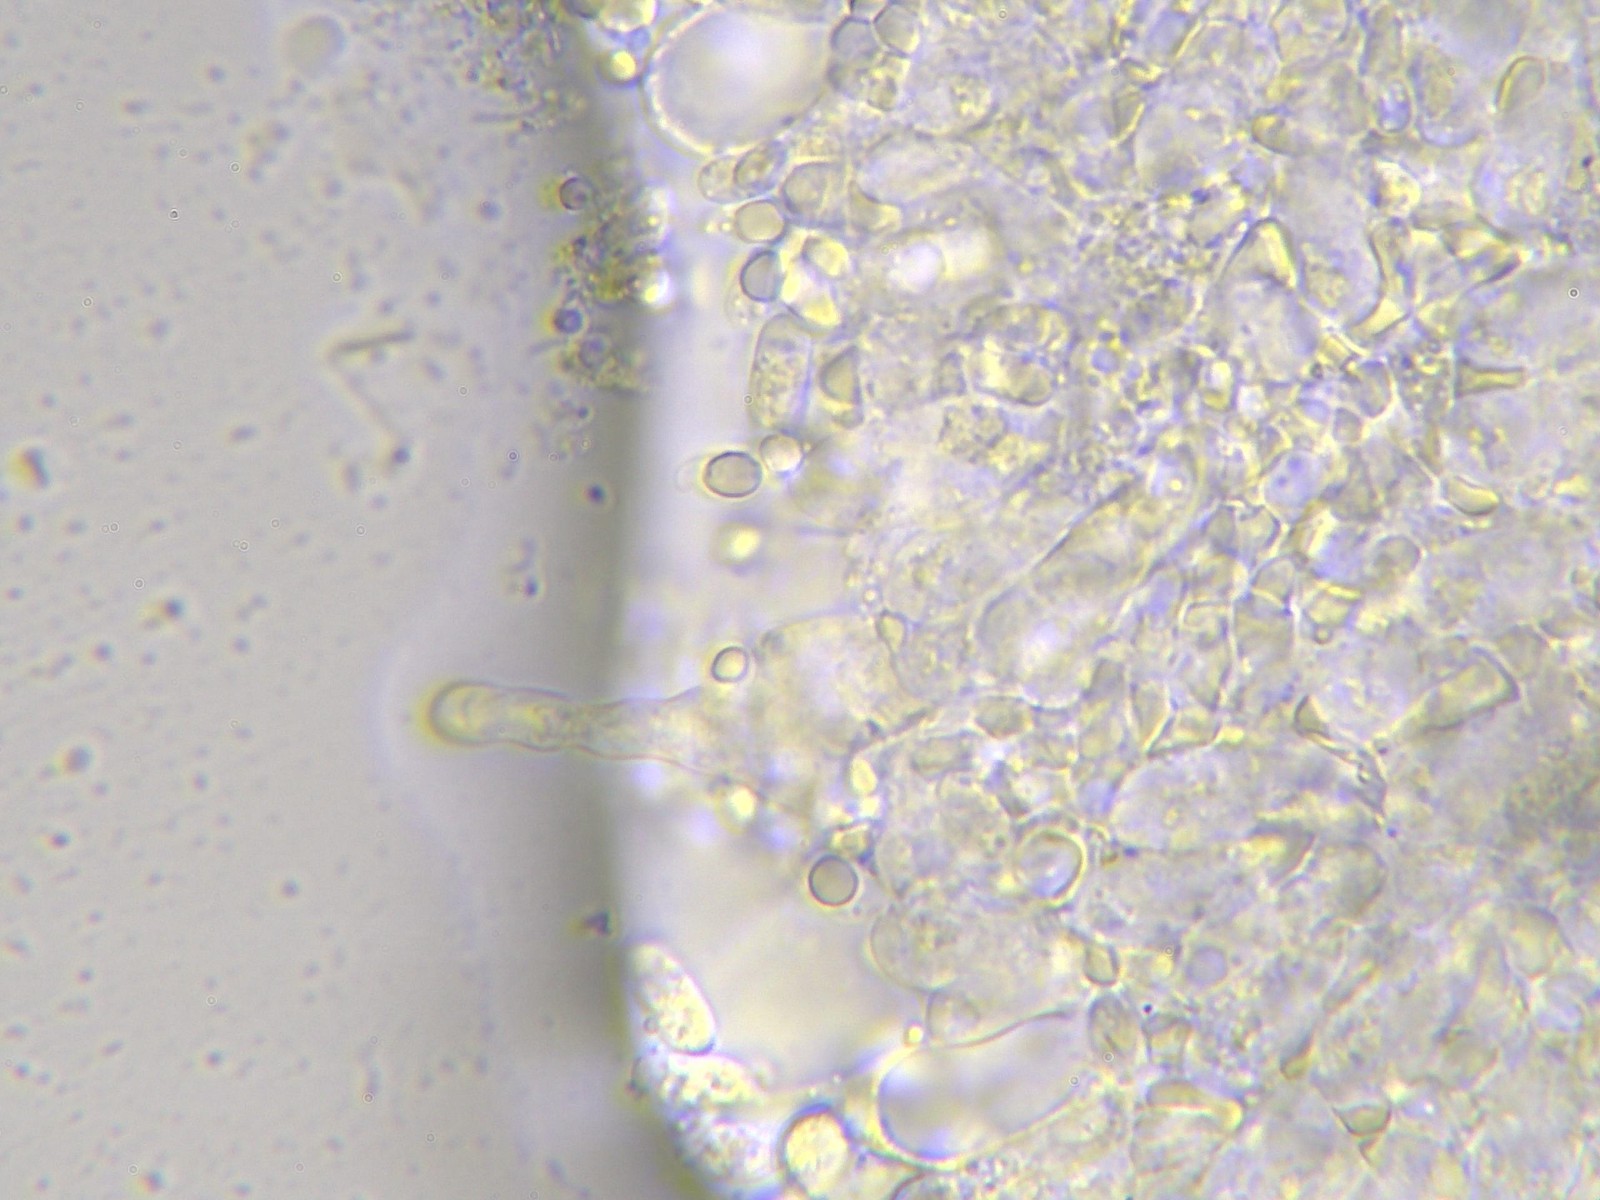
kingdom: Fungi
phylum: Basidiomycota
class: Agaricomycetes
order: Agaricales
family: Mycenaceae
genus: Atheniella
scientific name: Atheniella flavoalba
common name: gulhvid huesvamp
